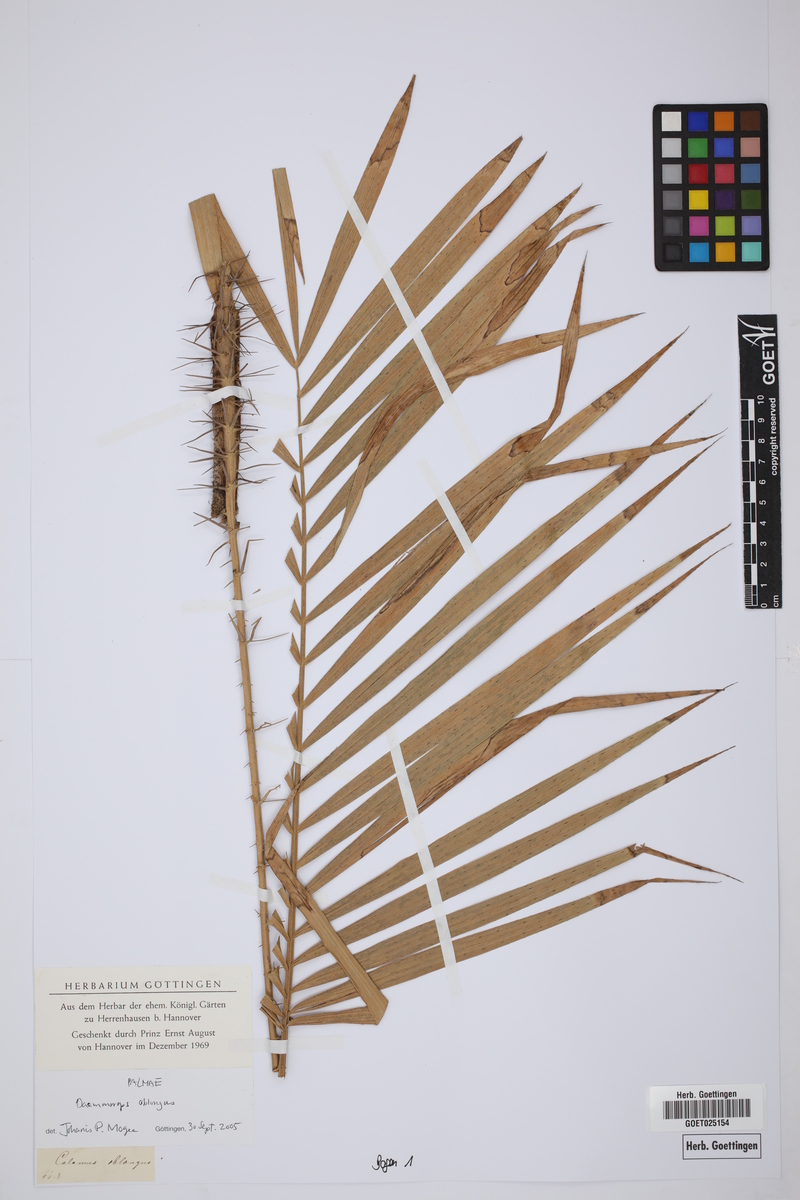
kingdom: Plantae
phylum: Tracheophyta
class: Liliopsida
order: Arecales
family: Arecaceae
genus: Calamus
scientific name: Calamus oblongus
